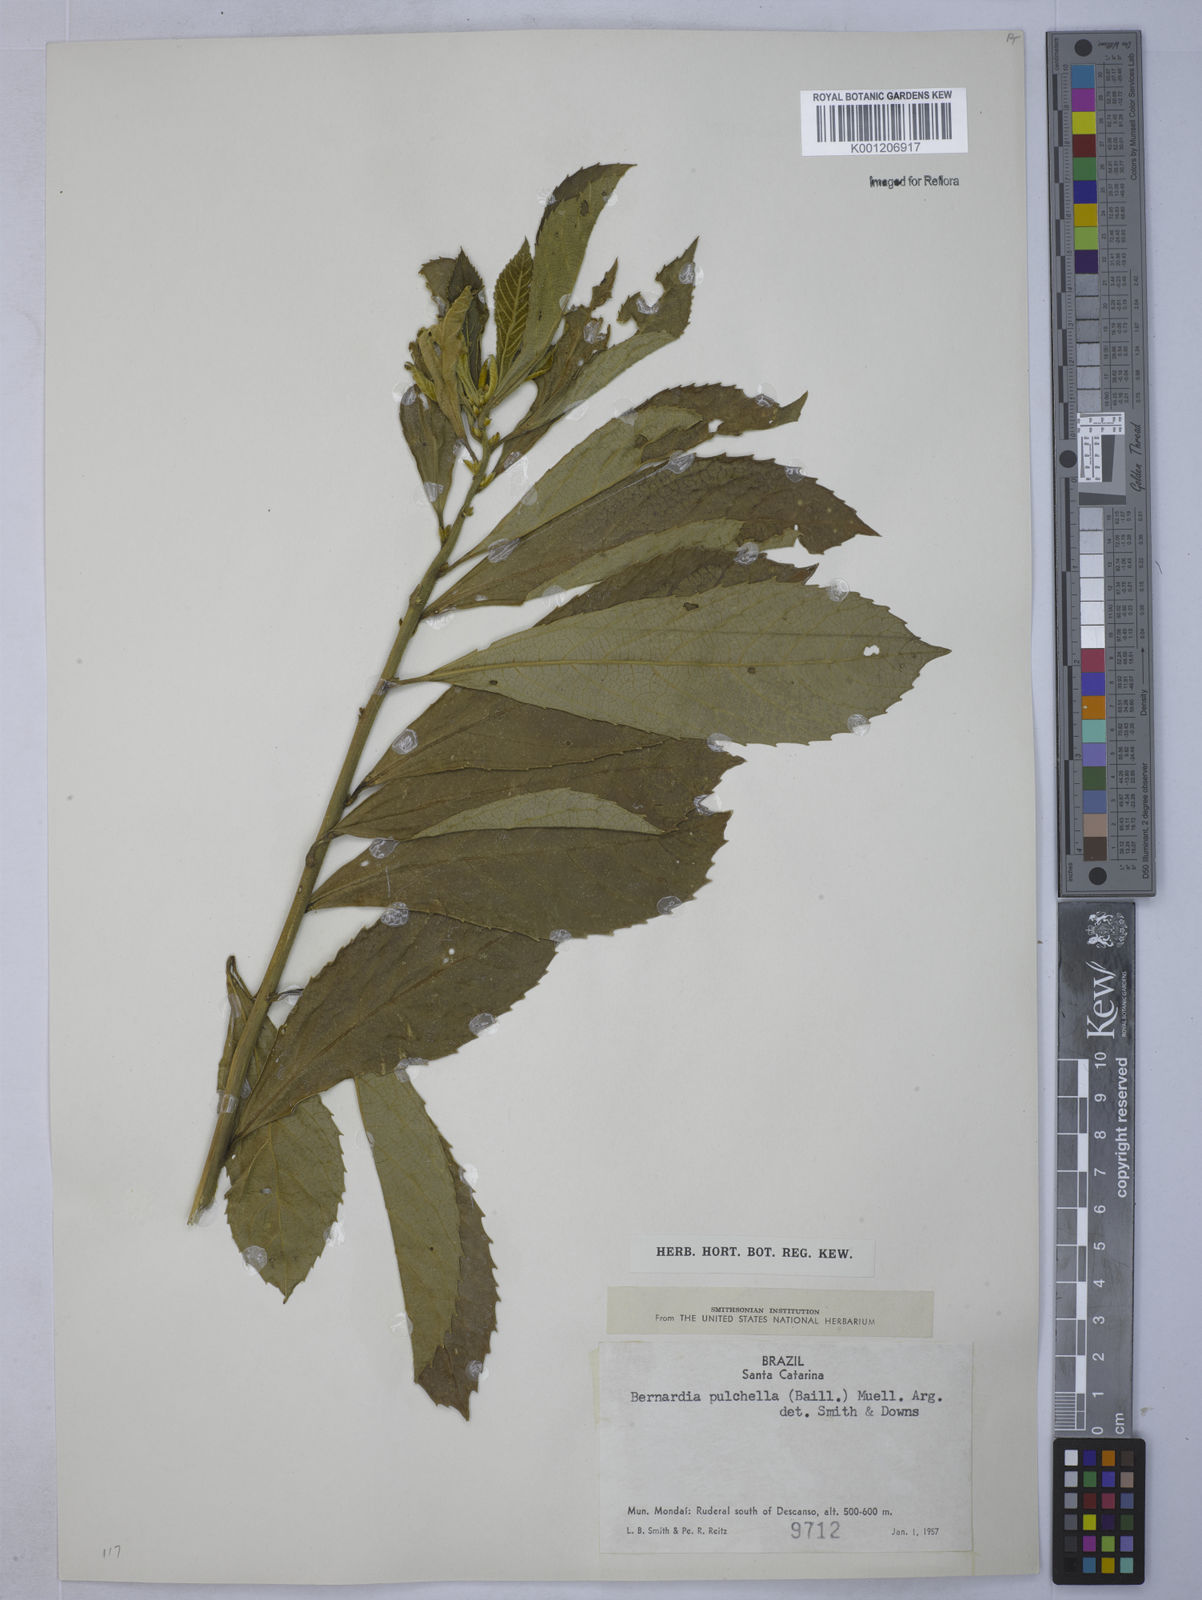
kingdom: Plantae
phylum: Tracheophyta
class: Magnoliopsida
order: Malpighiales
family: Euphorbiaceae
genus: Bernardia
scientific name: Bernardia
